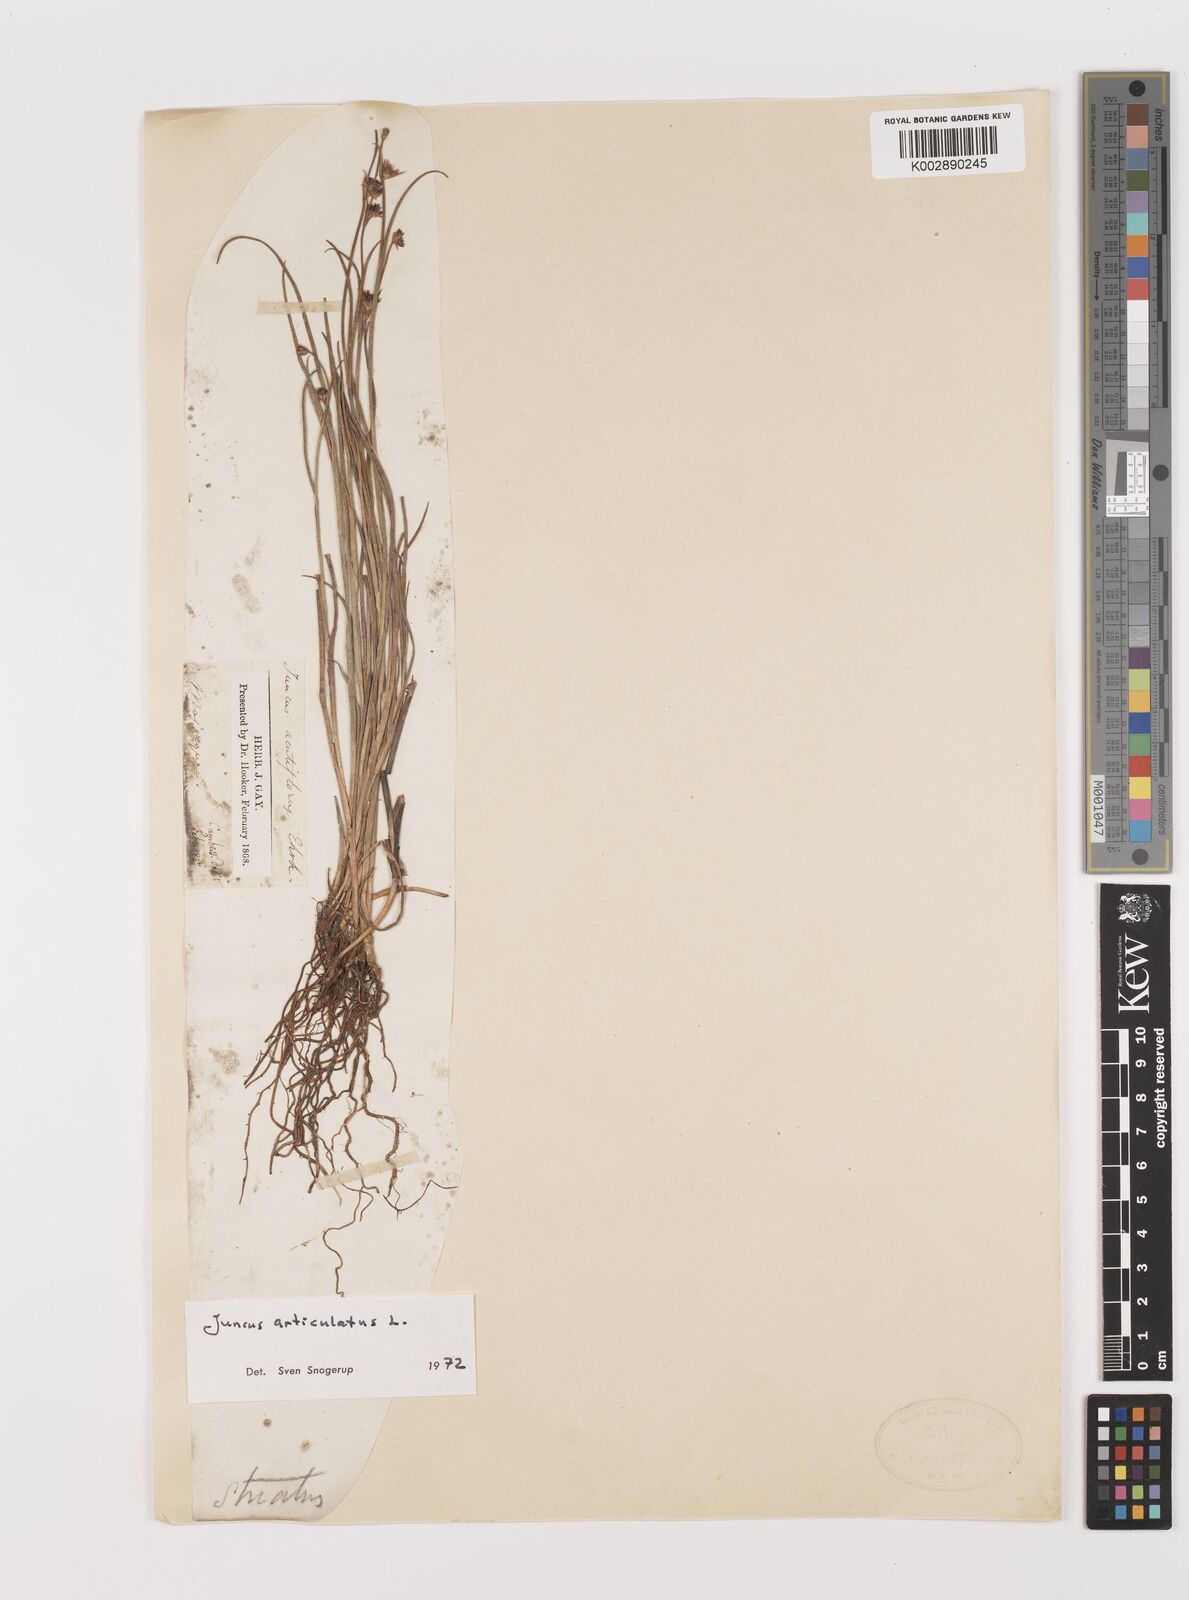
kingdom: Plantae
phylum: Tracheophyta
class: Liliopsida
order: Poales
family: Juncaceae
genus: Juncus
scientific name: Juncus articulatus
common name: Jointed rush
